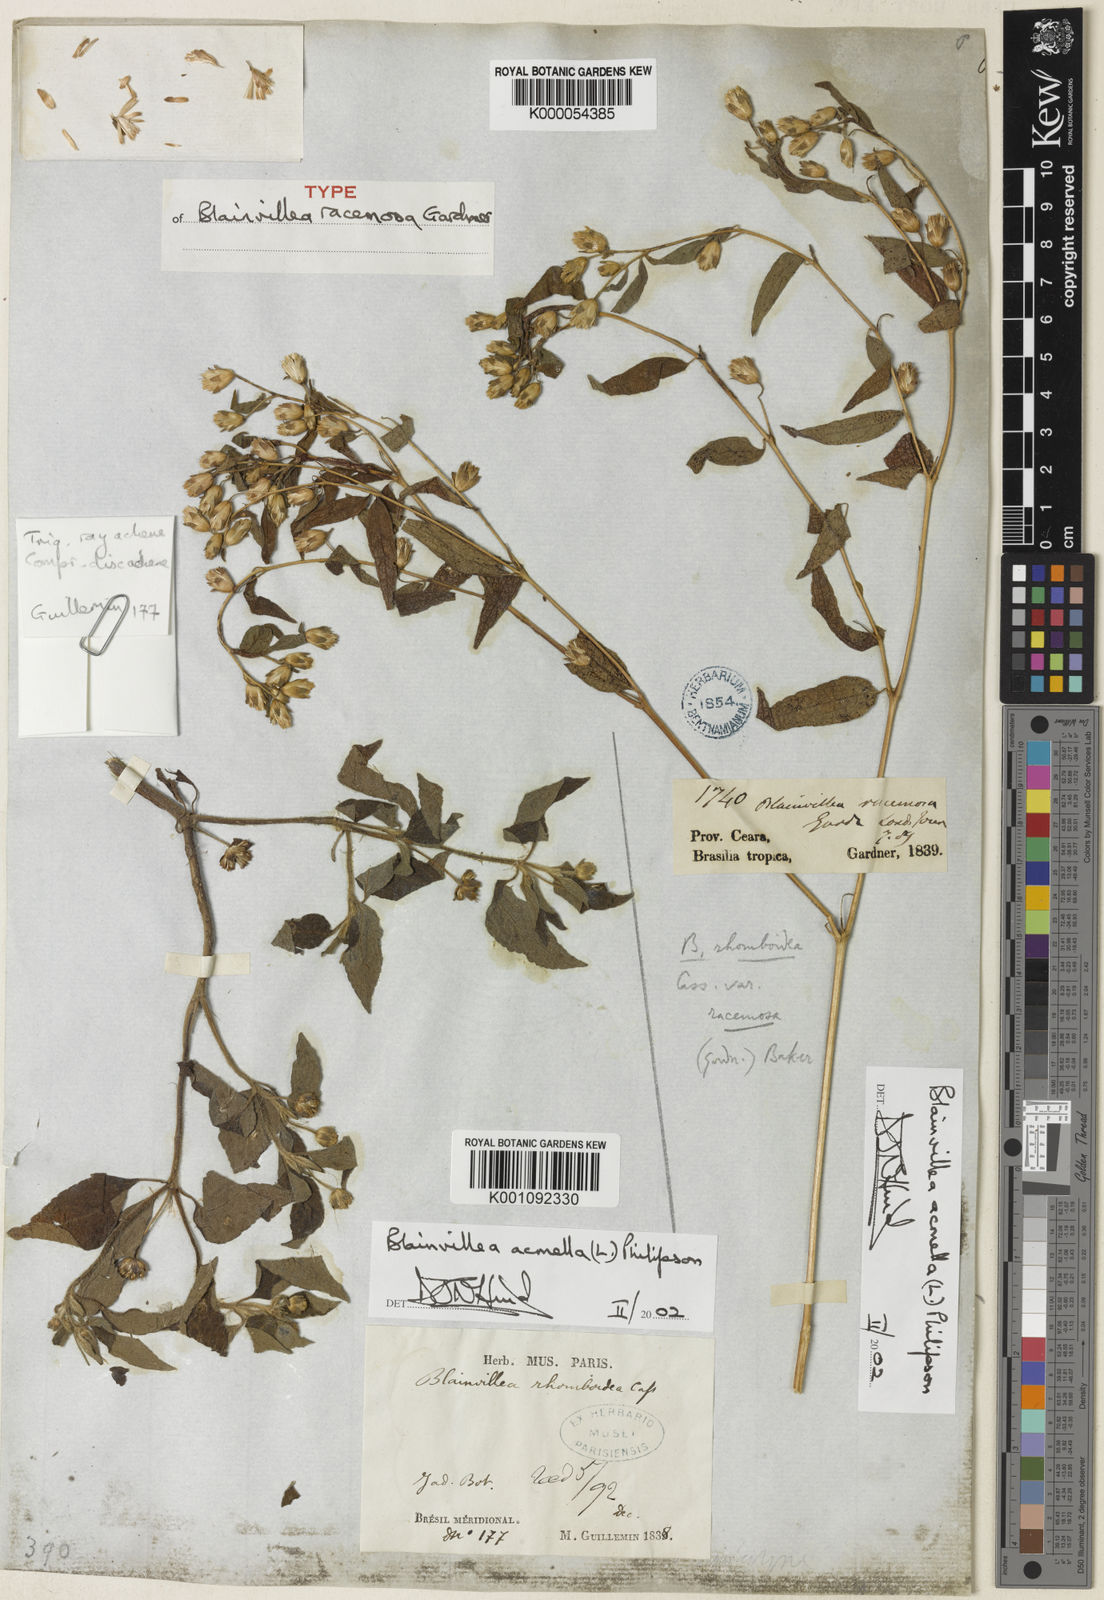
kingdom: Plantae
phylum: Tracheophyta
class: Magnoliopsida
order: Asterales
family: Asteraceae
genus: Blainvillea
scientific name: Blainvillea acmella
